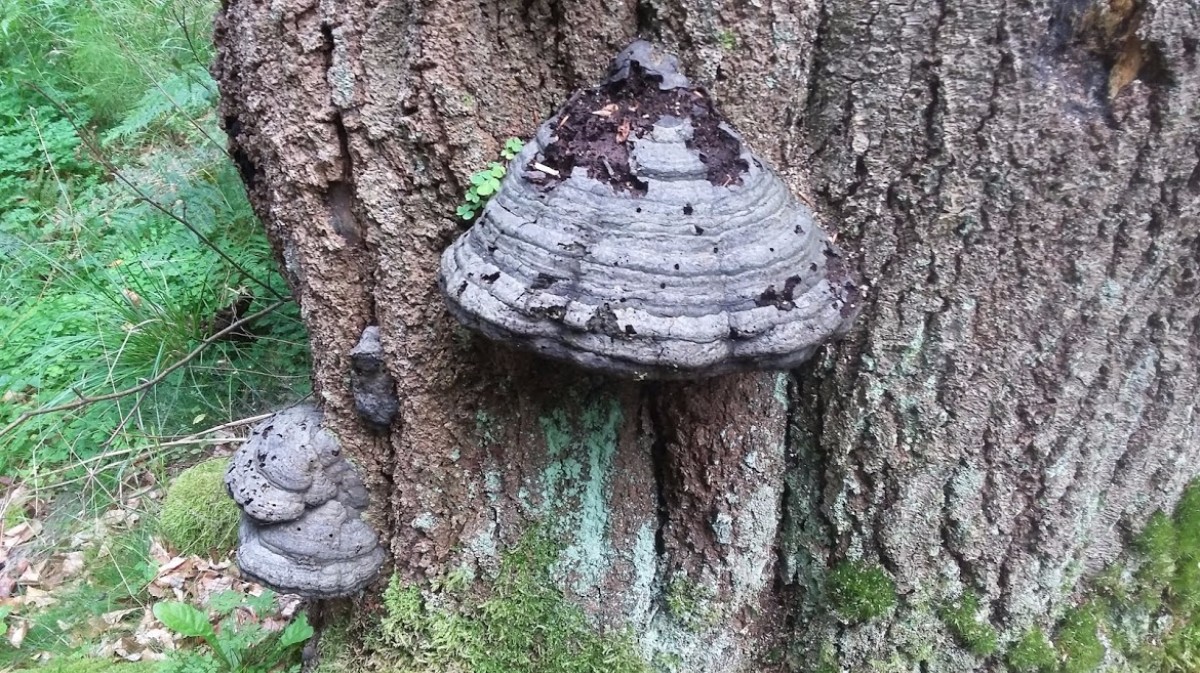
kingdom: Fungi
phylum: Basidiomycota
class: Agaricomycetes
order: Polyporales
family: Polyporaceae
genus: Fomes
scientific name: Fomes fomentarius
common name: tøndersvamp
